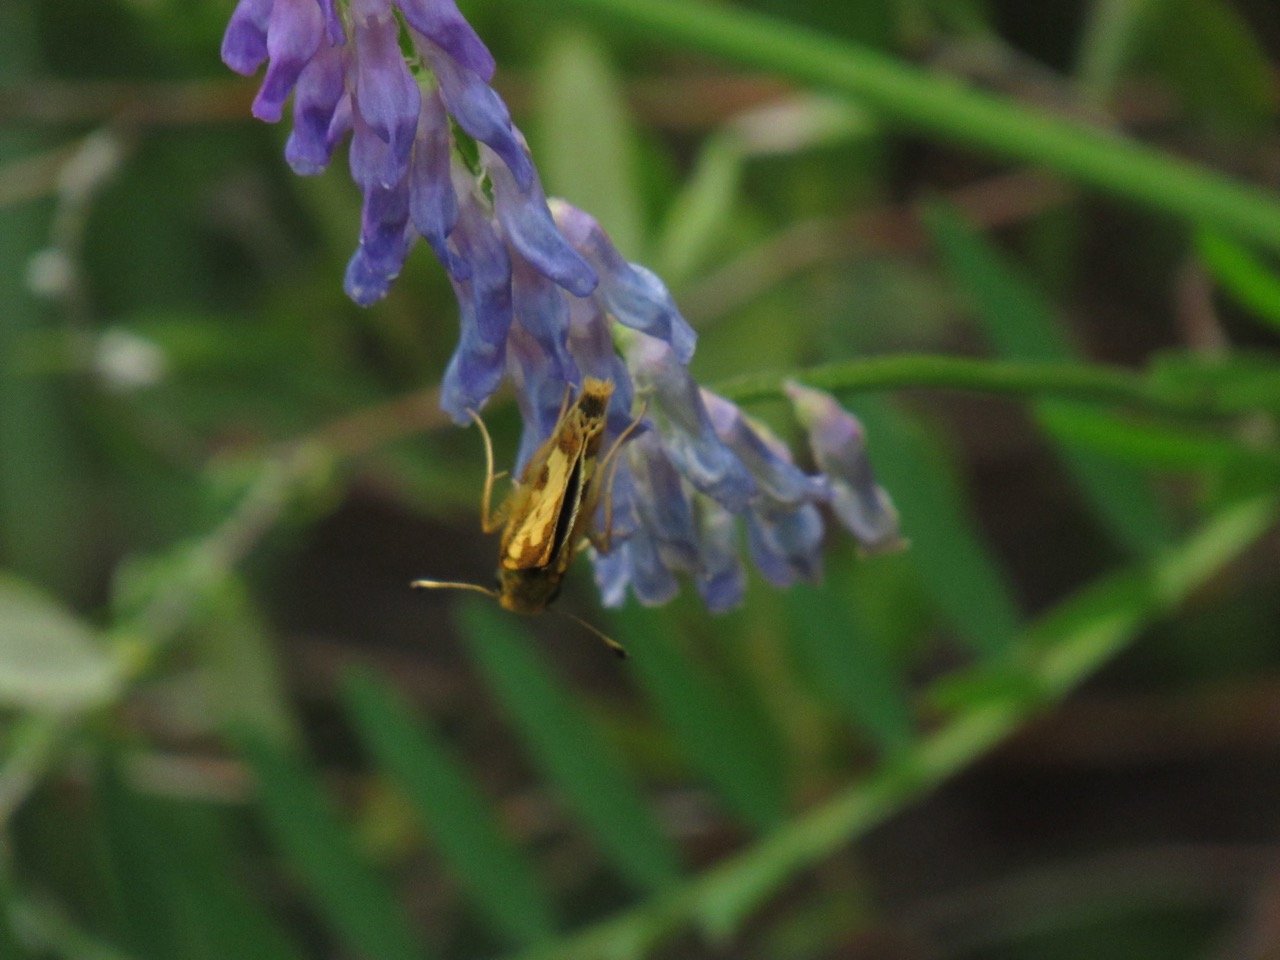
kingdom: Animalia
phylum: Arthropoda
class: Insecta
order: Lepidoptera
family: Hesperiidae
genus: Polites
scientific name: Polites coras
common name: Peck's Skipper
